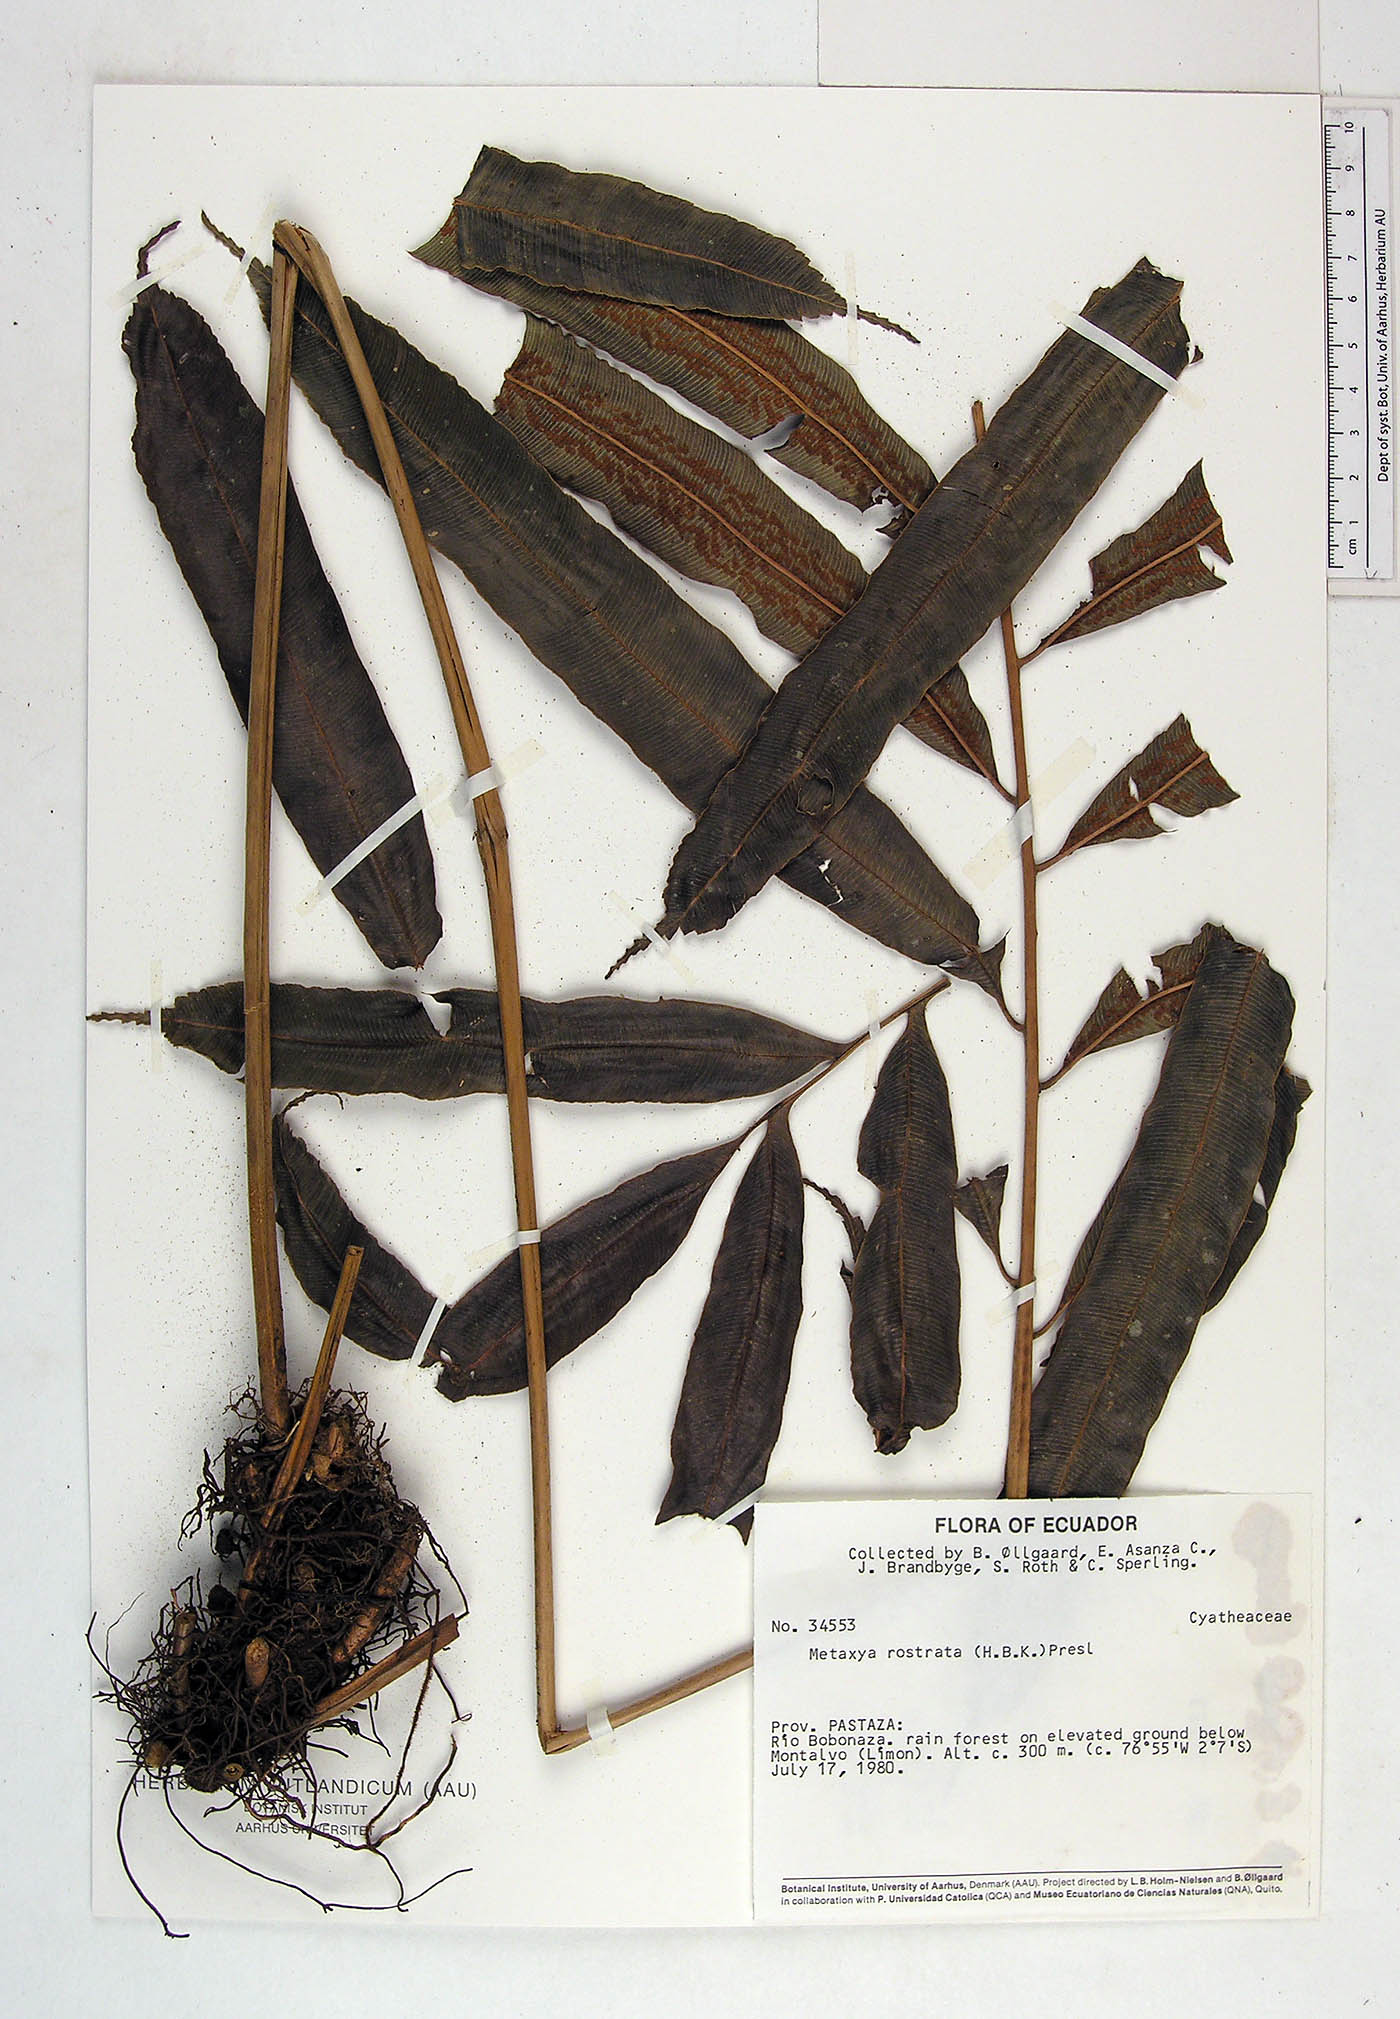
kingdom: Plantae
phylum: Tracheophyta
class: Polypodiopsida
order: Cyatheales
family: Metaxyaceae
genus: Metaxya
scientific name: Metaxya parkeri
